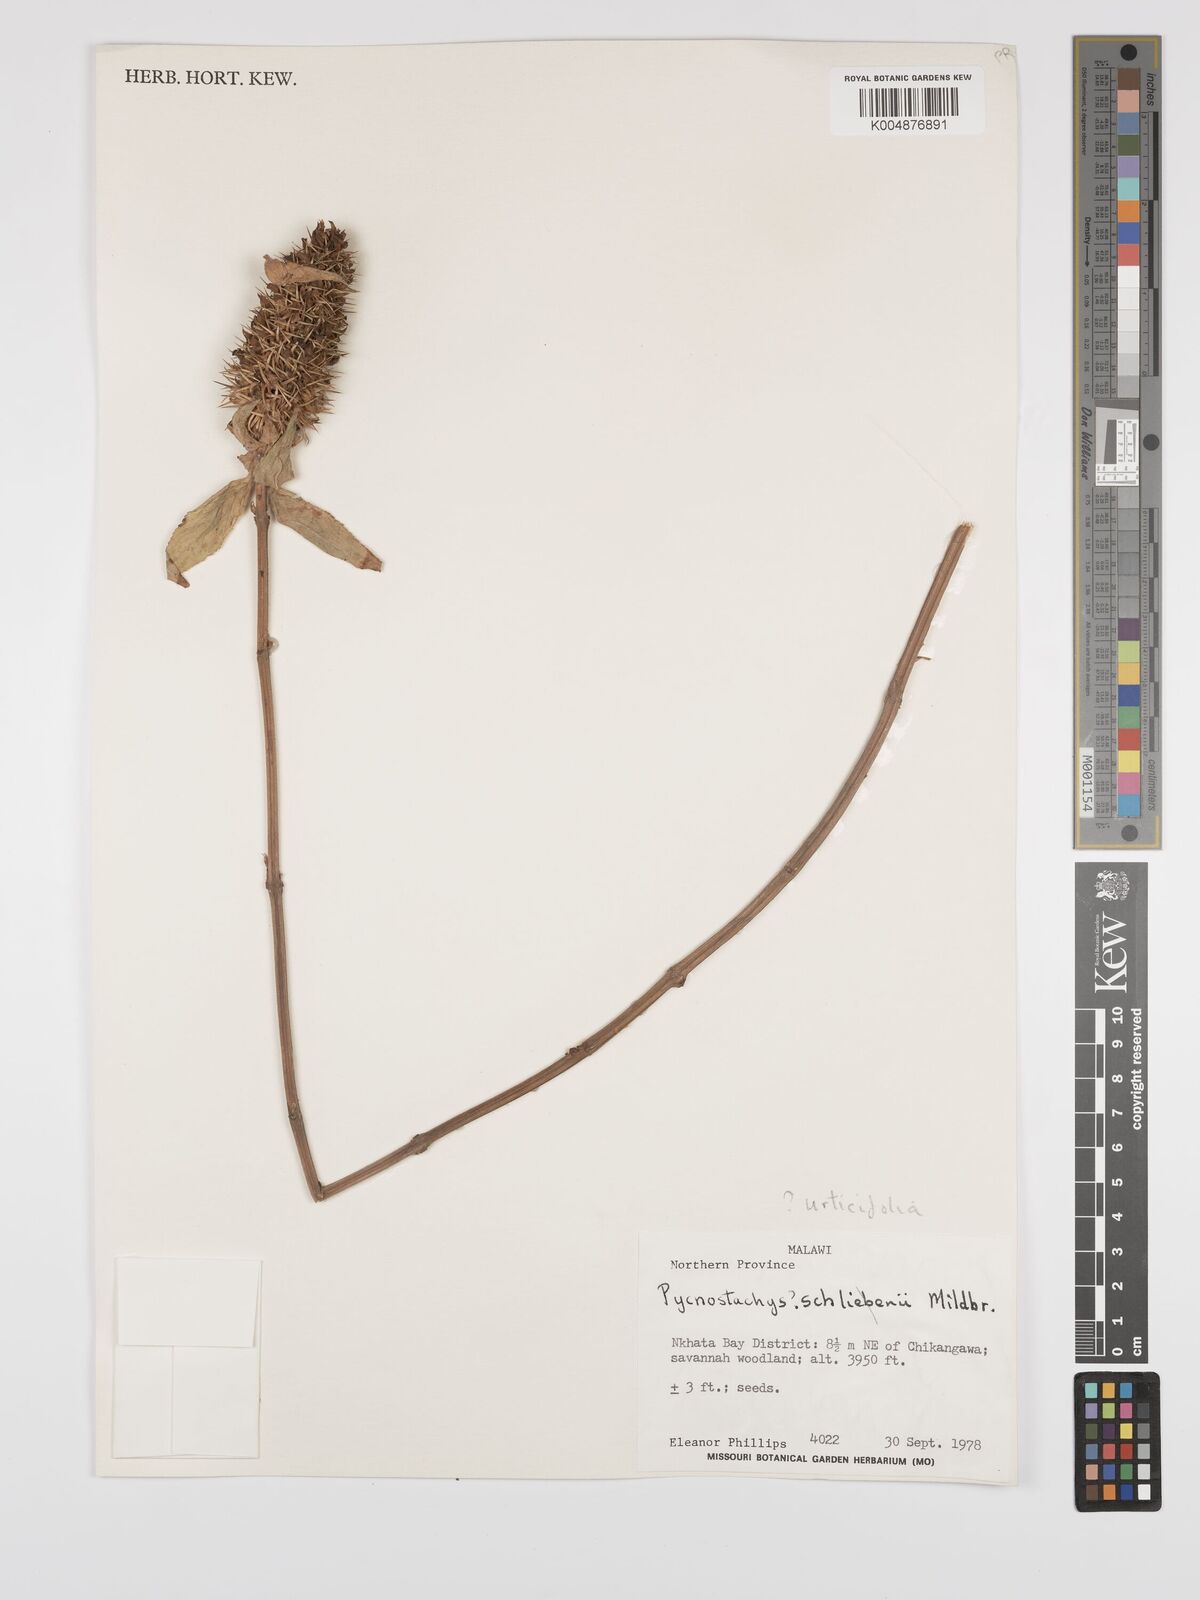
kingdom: Plantae
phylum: Tracheophyta
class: Magnoliopsida
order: Lamiales
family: Lamiaceae
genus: Coleus
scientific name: Coleus livingstonei
